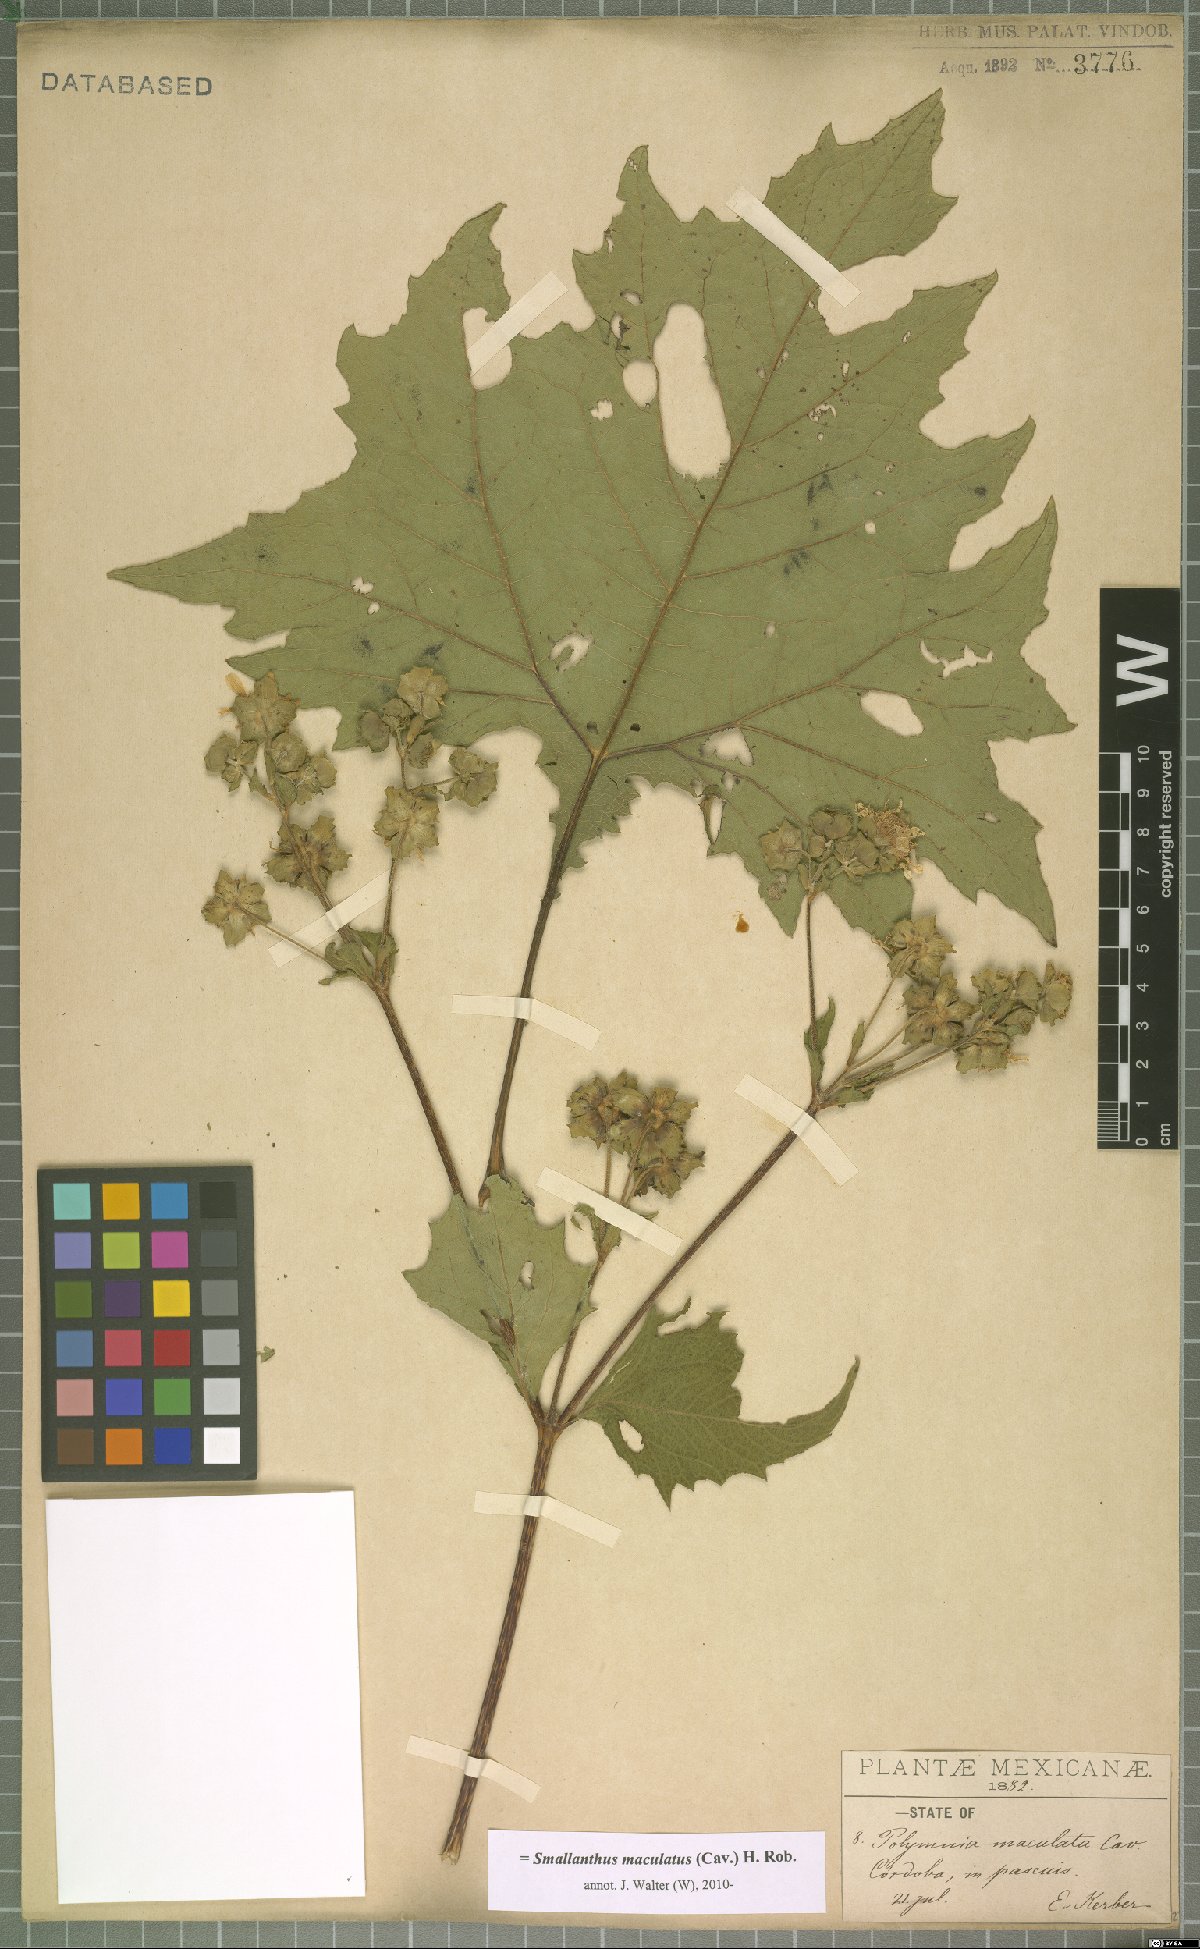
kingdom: Plantae
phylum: Tracheophyta
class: Magnoliopsida
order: Asterales
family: Asteraceae
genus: Smallanthus
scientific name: Smallanthus maculatus
